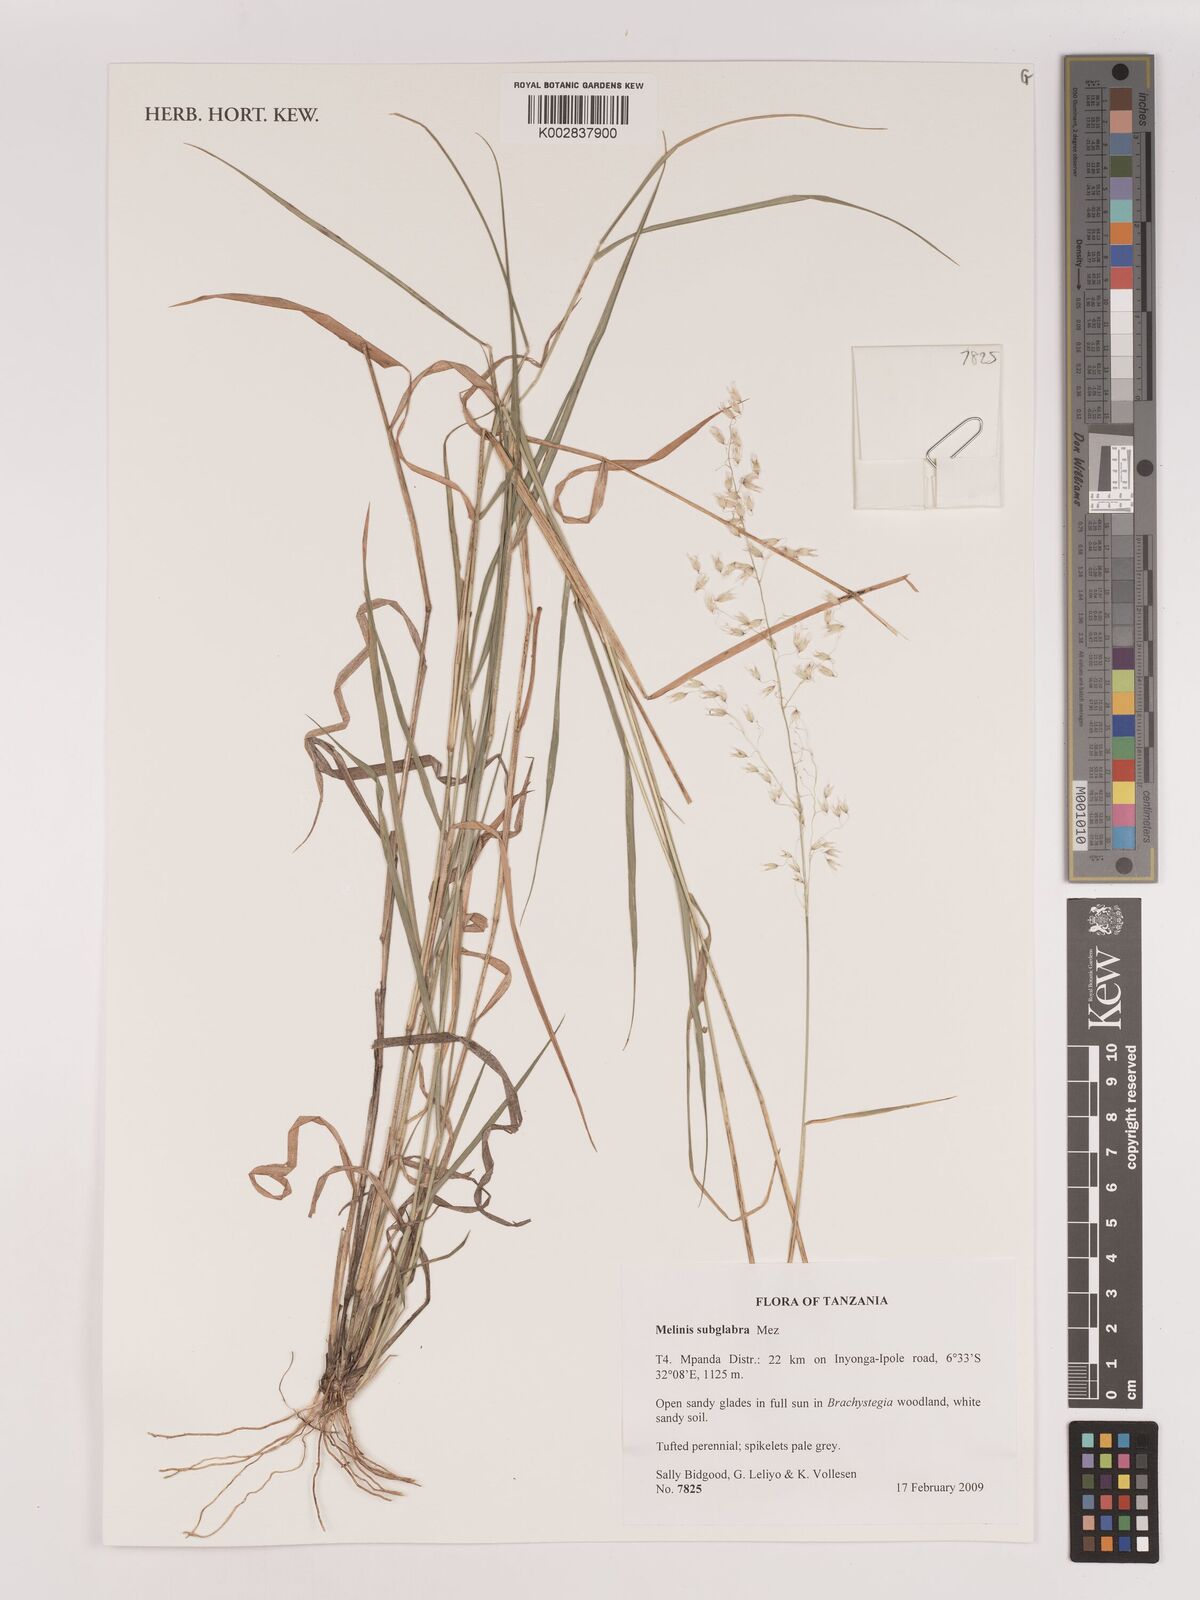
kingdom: Plantae
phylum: Tracheophyta
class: Liliopsida
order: Poales
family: Poaceae
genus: Melinis
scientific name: Melinis subglabra
